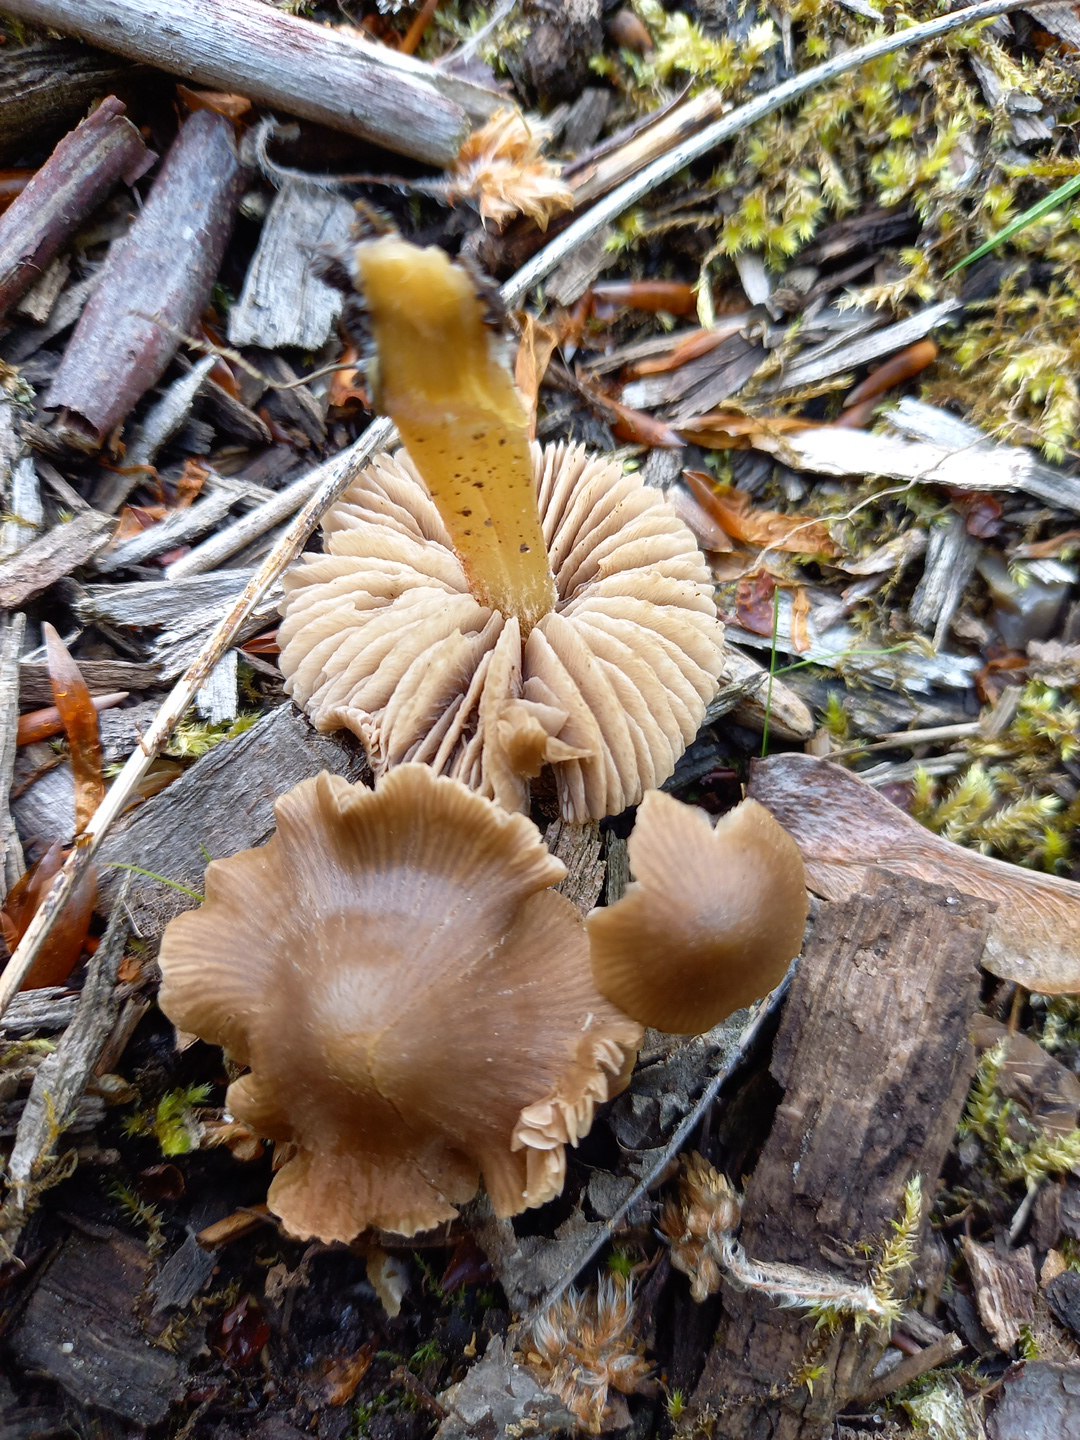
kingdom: Fungi
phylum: Basidiomycota
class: Agaricomycetes
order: Agaricales
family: Pluteaceae
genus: Pluteus
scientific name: Pluteus romellii
